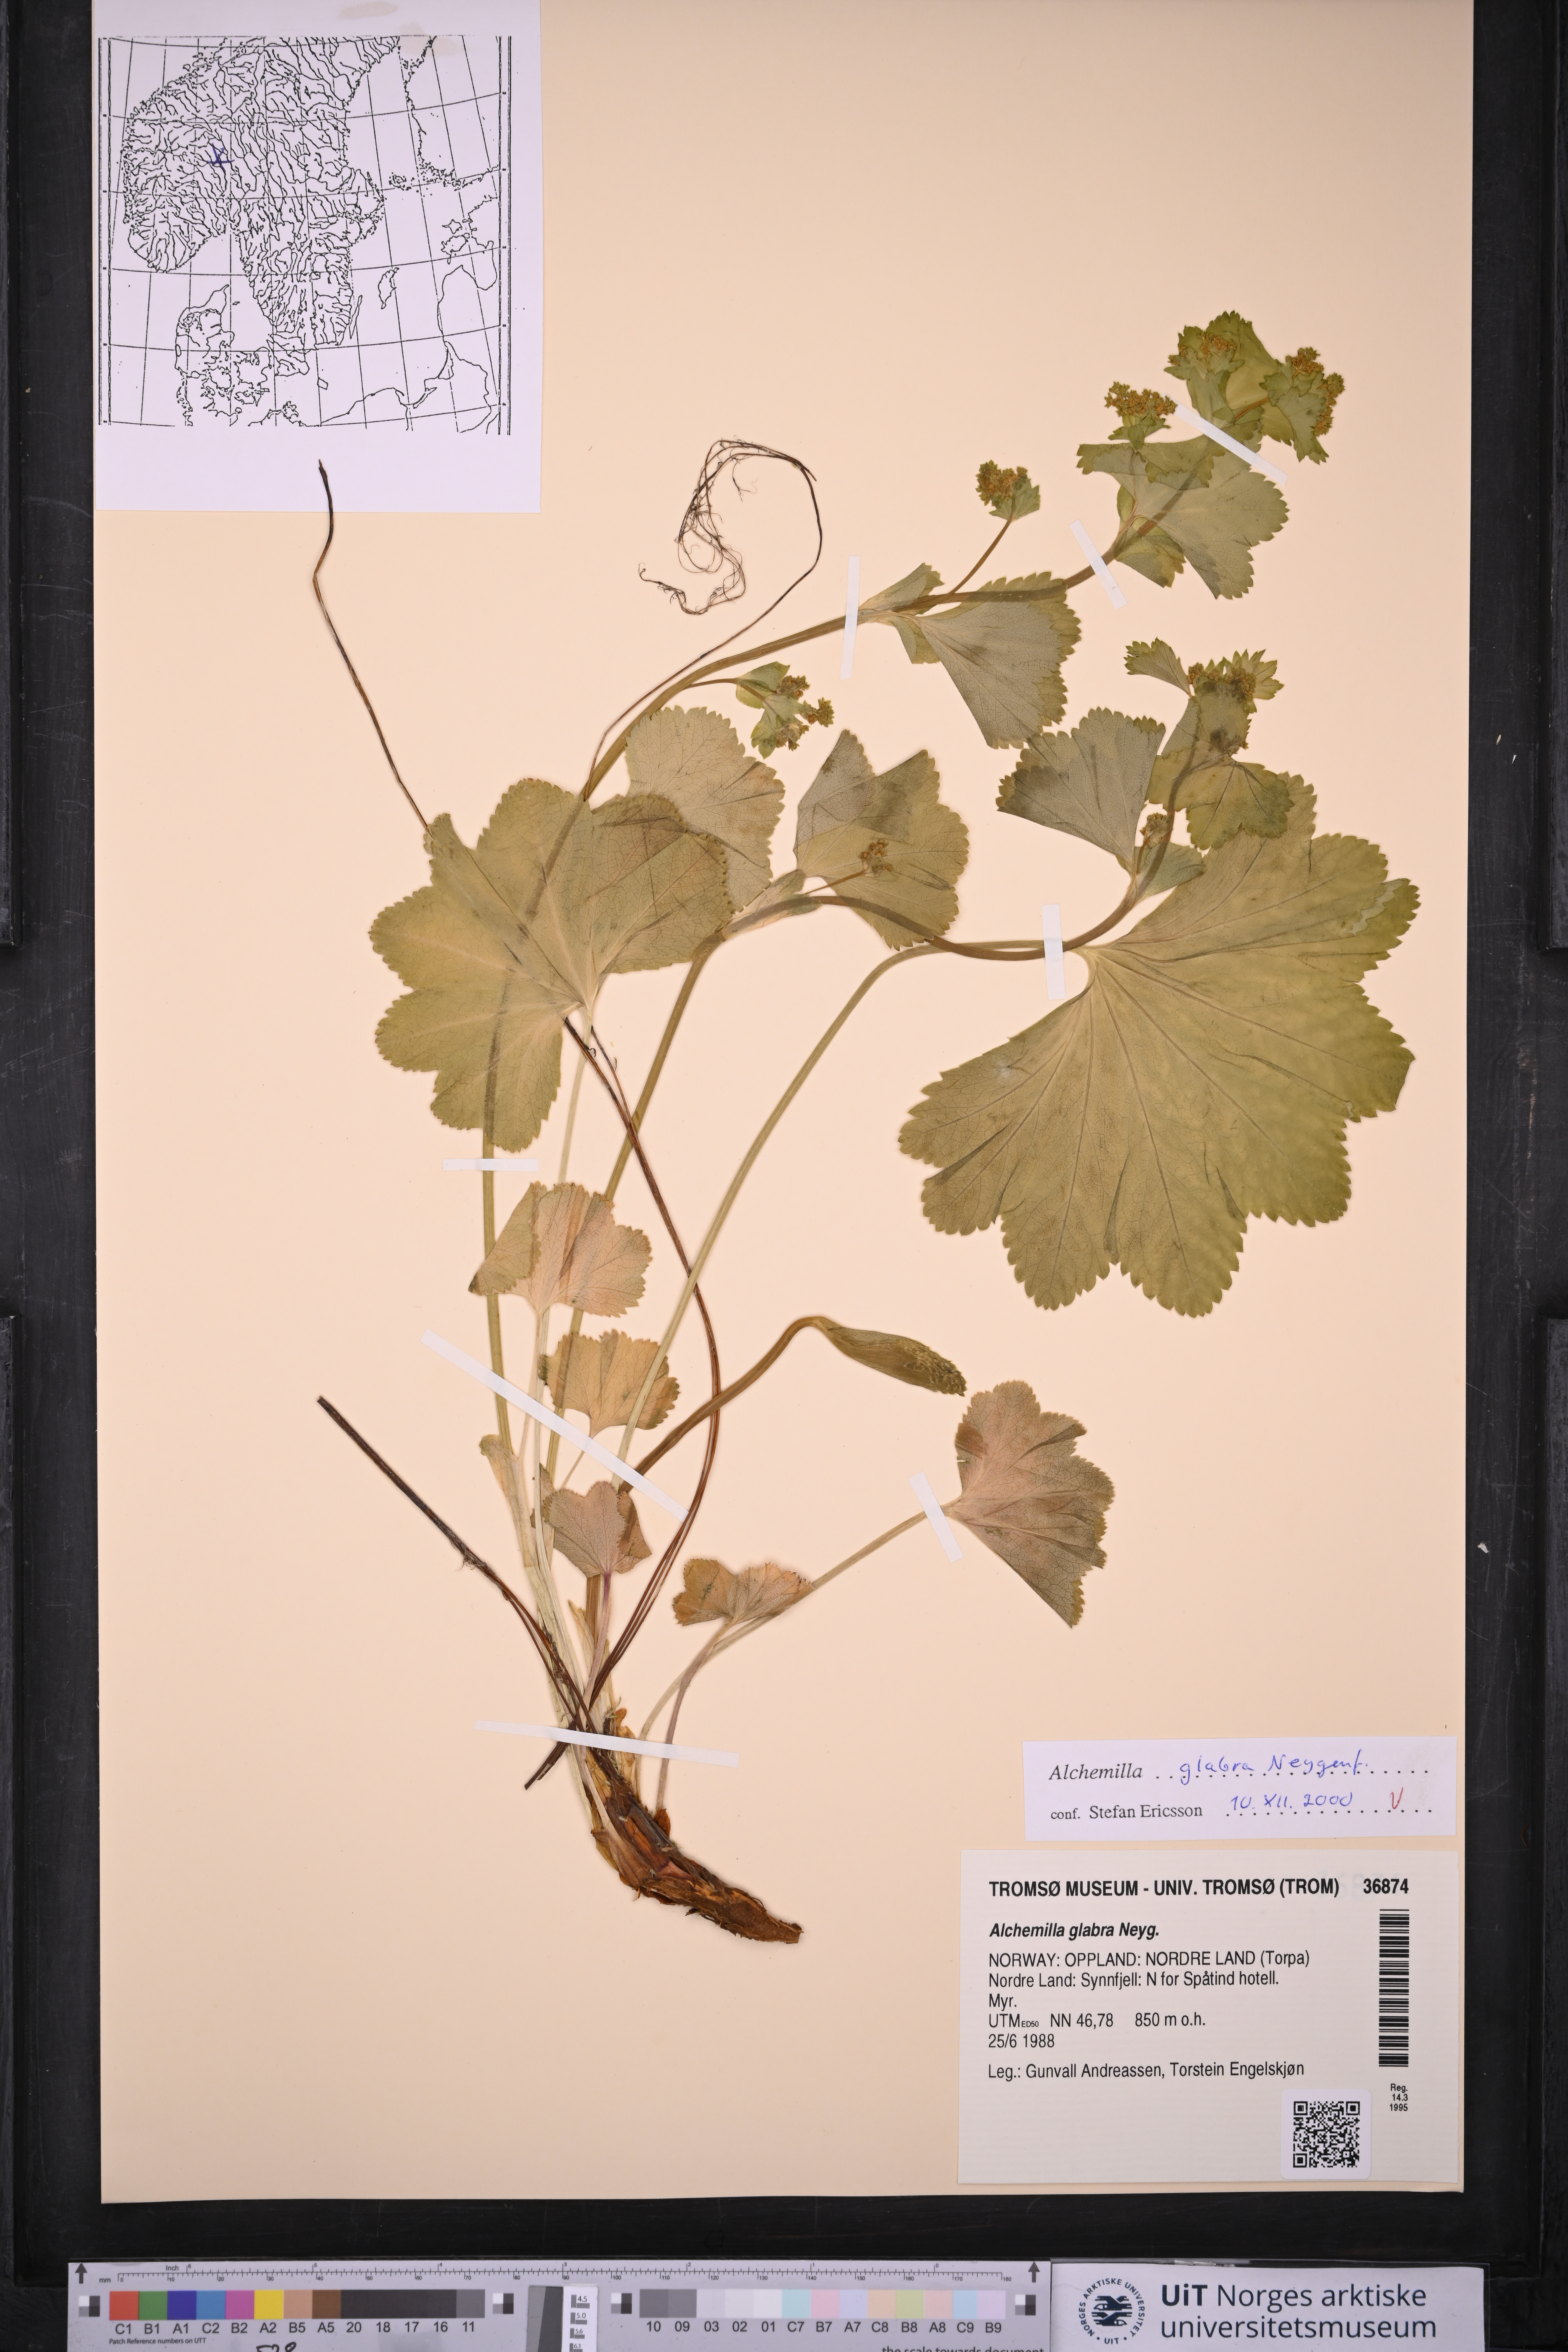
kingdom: Plantae
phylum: Tracheophyta
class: Magnoliopsida
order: Rosales
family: Rosaceae
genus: Alchemilla
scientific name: Alchemilla glabra
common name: Smooth lady's-mantle
